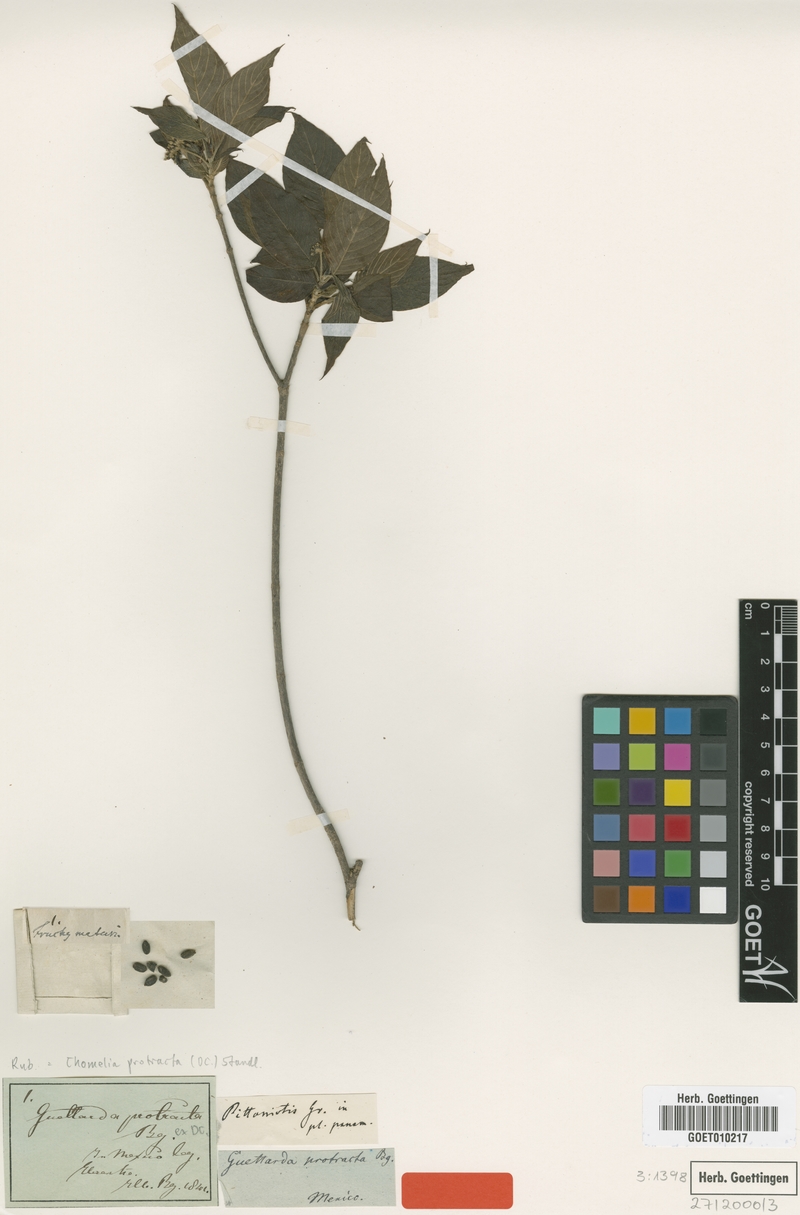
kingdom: Plantae
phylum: Tracheophyta
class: Magnoliopsida
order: Gentianales
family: Rubiaceae
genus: Pittoniotis
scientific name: Pittoniotis protracta
